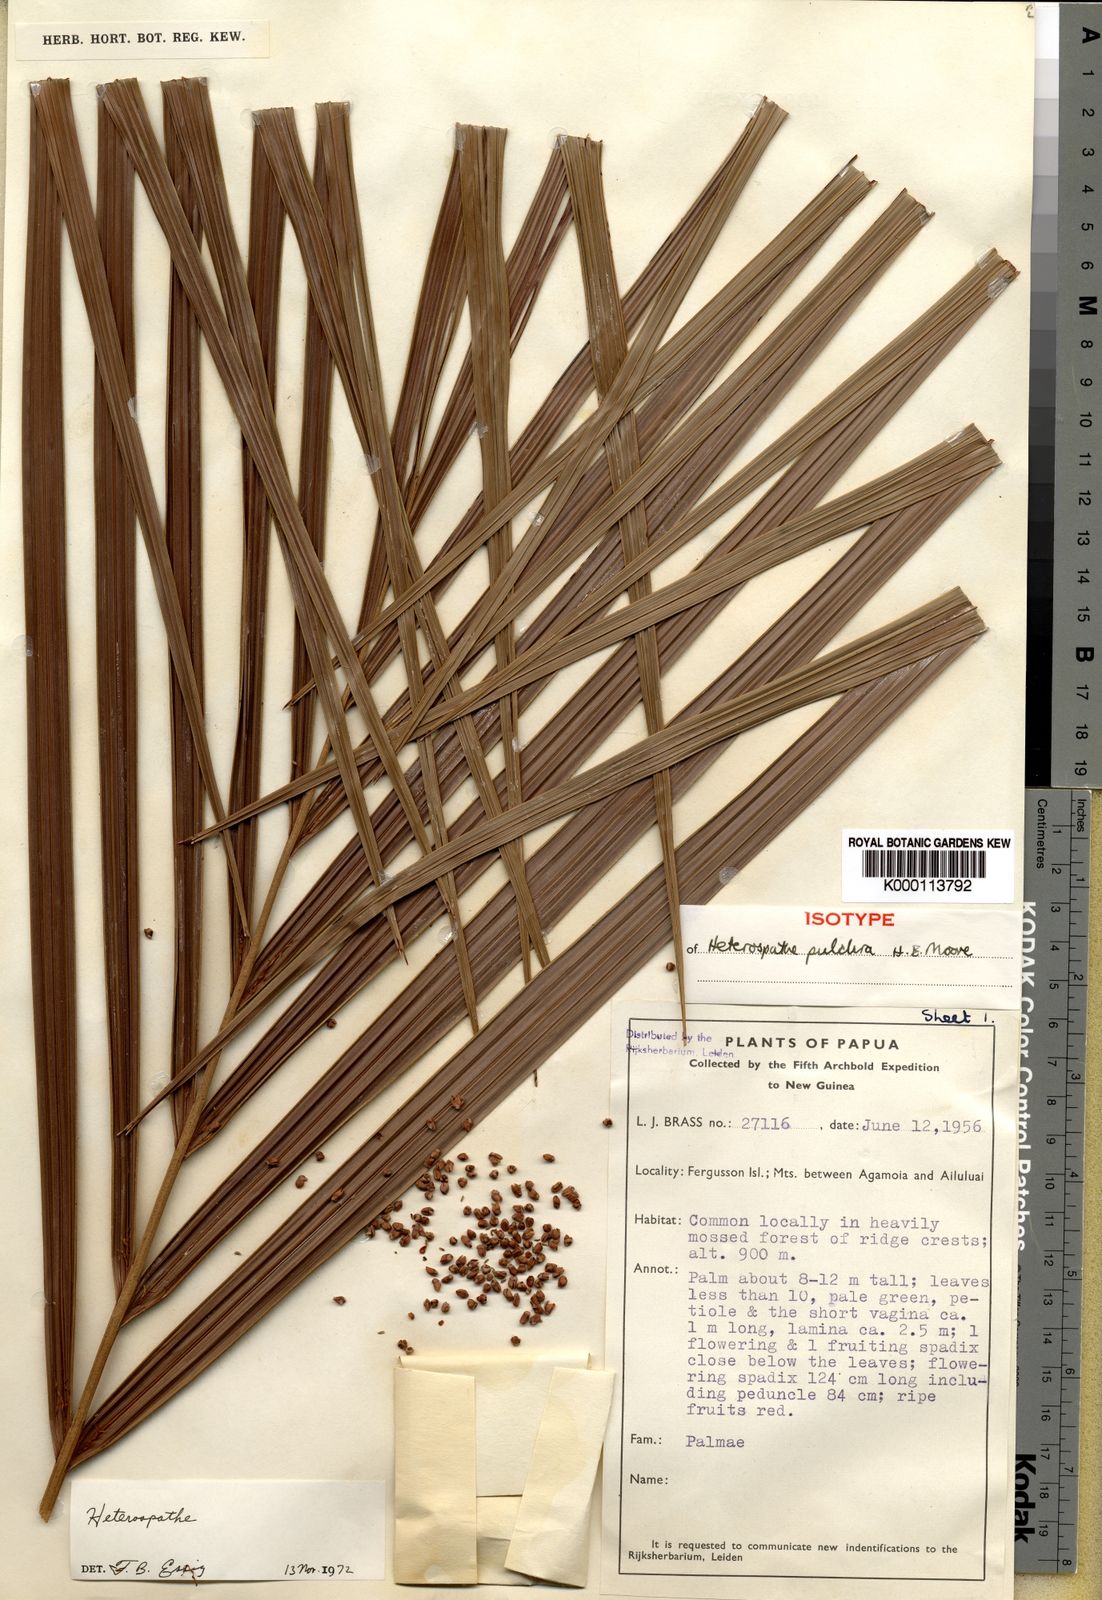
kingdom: Plantae
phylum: Tracheophyta
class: Liliopsida
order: Arecales
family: Arecaceae
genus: Heterospathe
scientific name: Heterospathe pulchra
